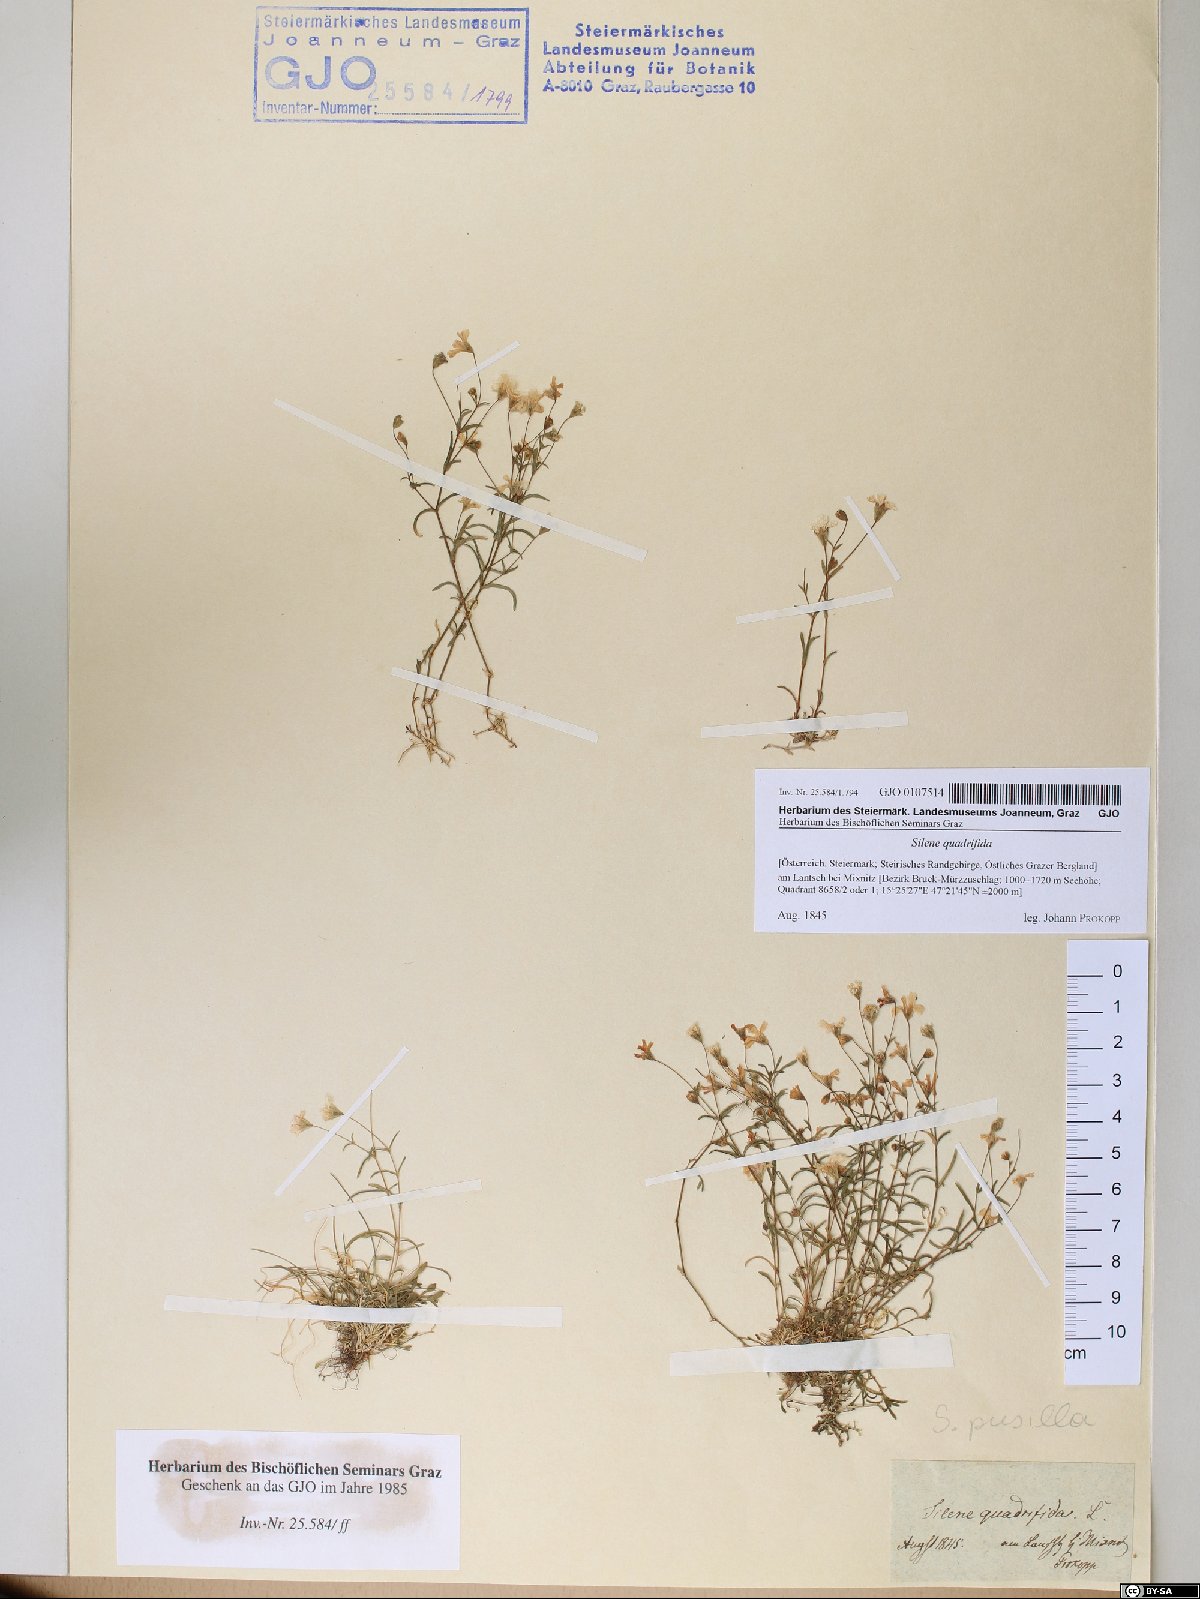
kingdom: Plantae
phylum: Tracheophyta
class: Magnoliopsida
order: Caryophyllales
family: Caryophyllaceae
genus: Heliosperma
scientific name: Heliosperma alpestre
